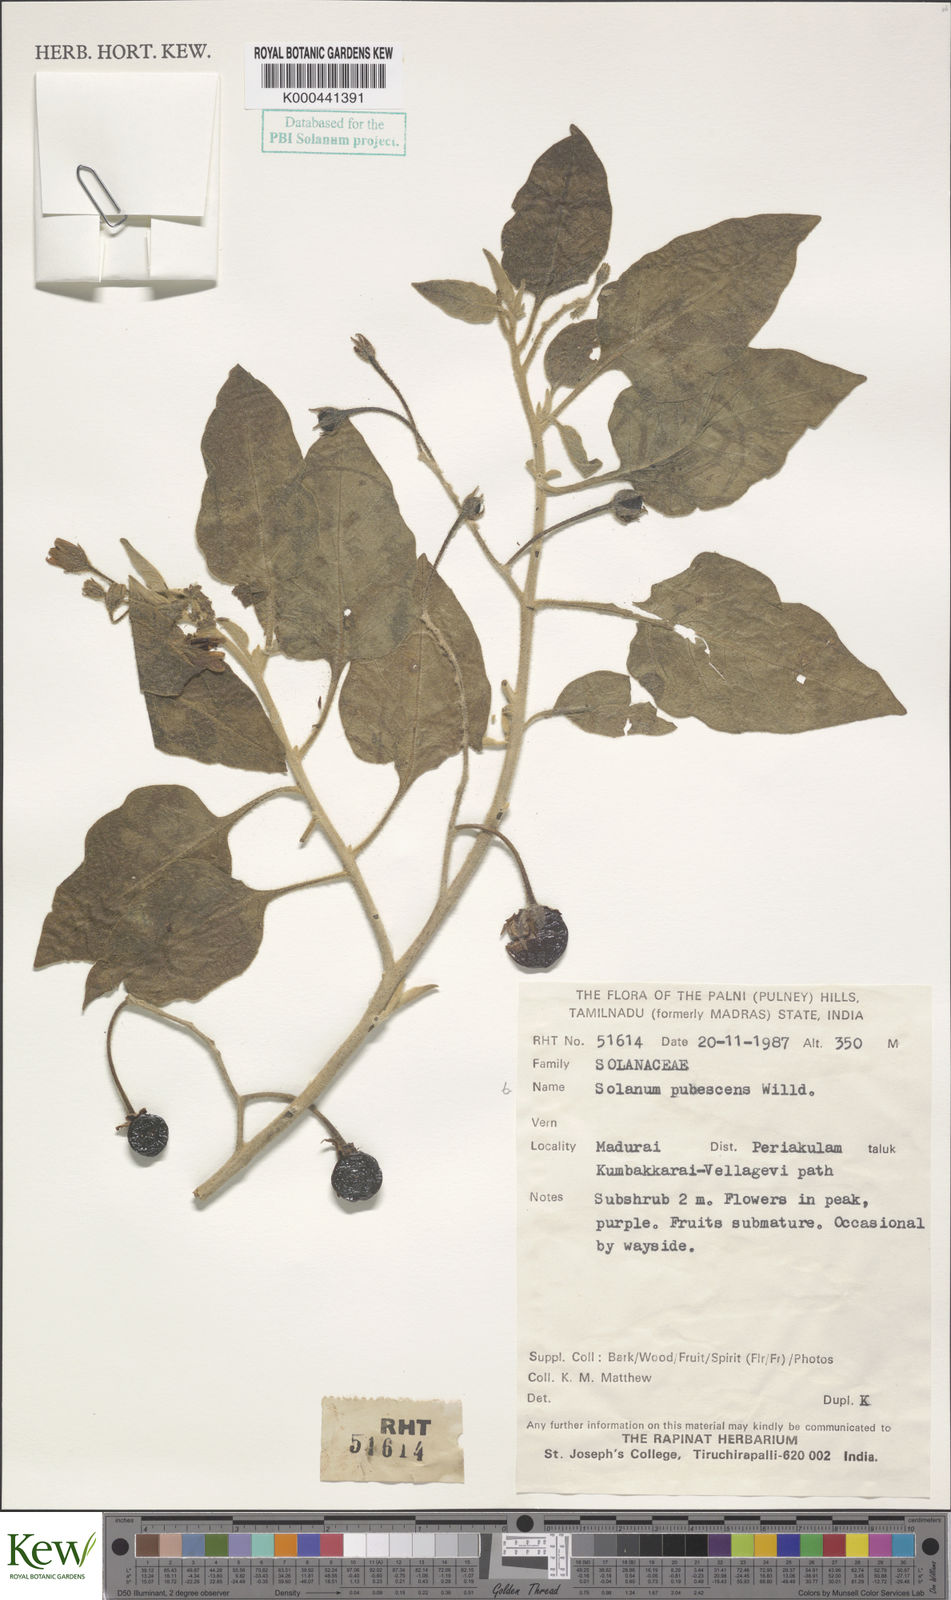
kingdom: Plantae
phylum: Tracheophyta
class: Magnoliopsida
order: Solanales
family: Solanaceae
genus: Solanum
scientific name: Solanum pubescens
